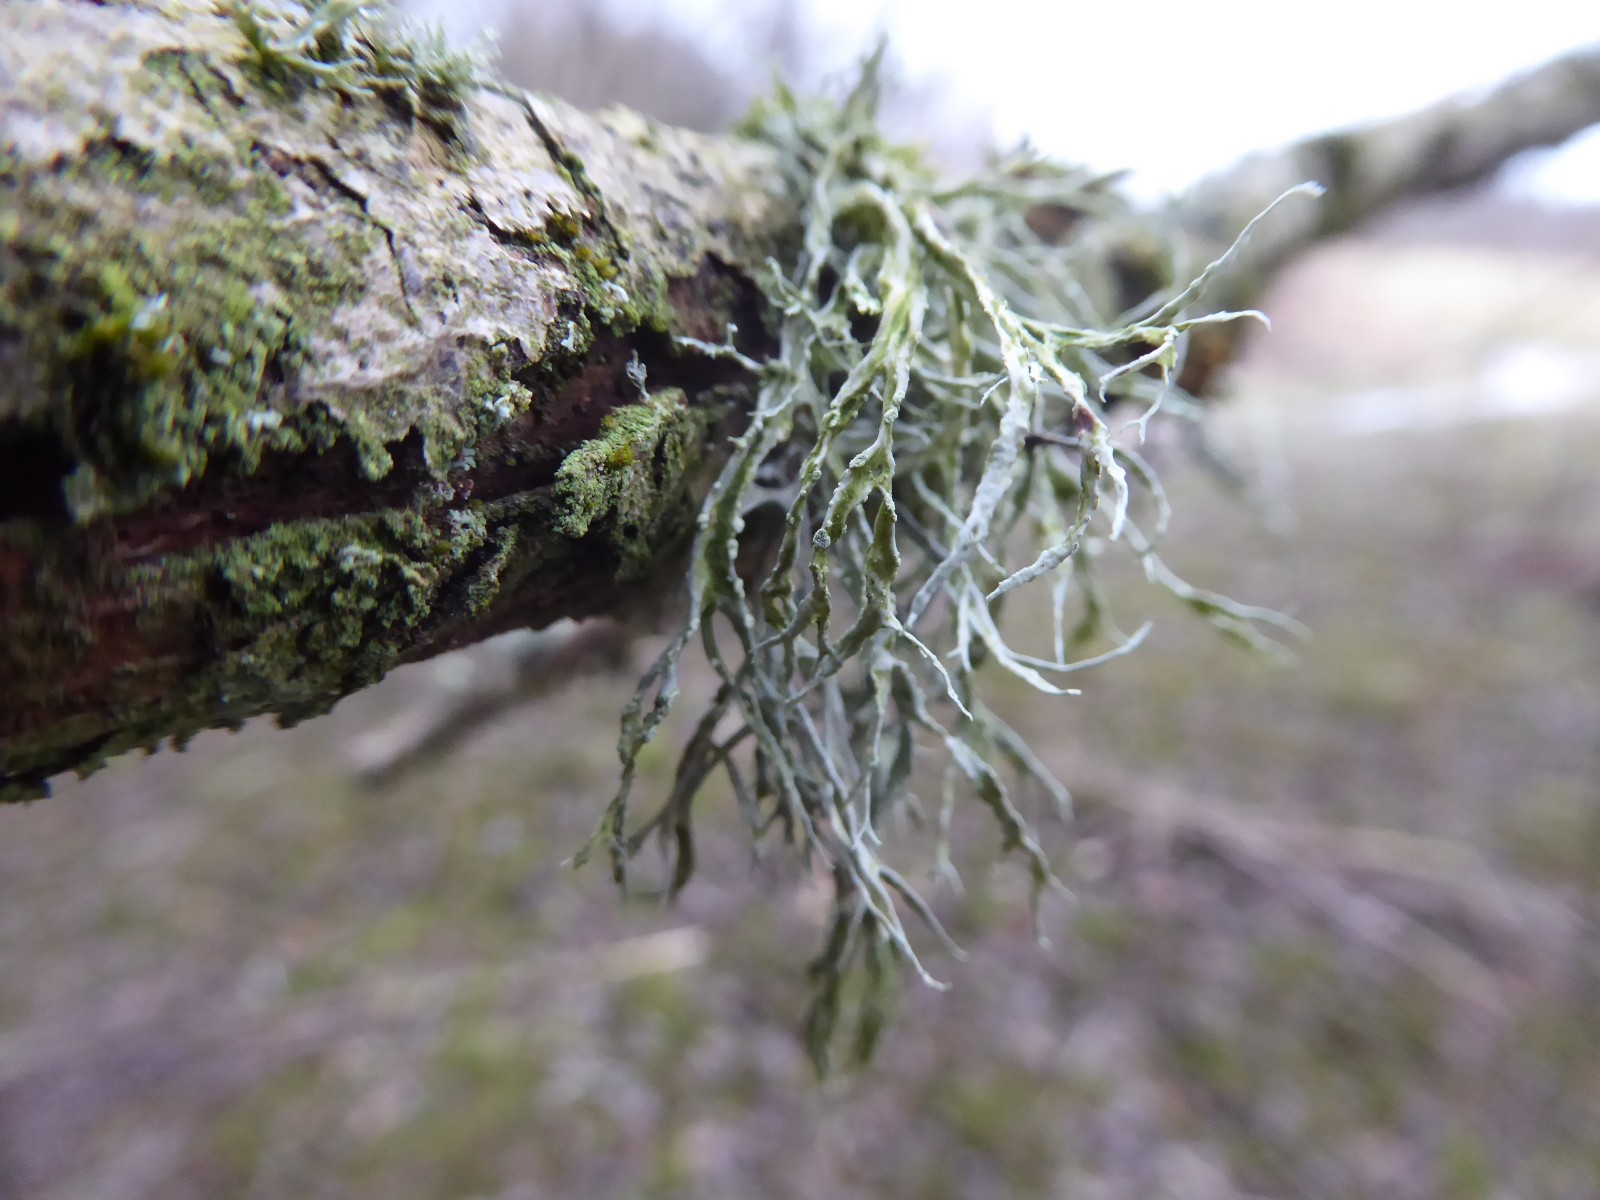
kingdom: Fungi
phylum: Ascomycota
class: Lecanoromycetes
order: Lecanorales
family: Ramalinaceae
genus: Ramalina
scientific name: Ramalina farinacea
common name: melet grenlav
